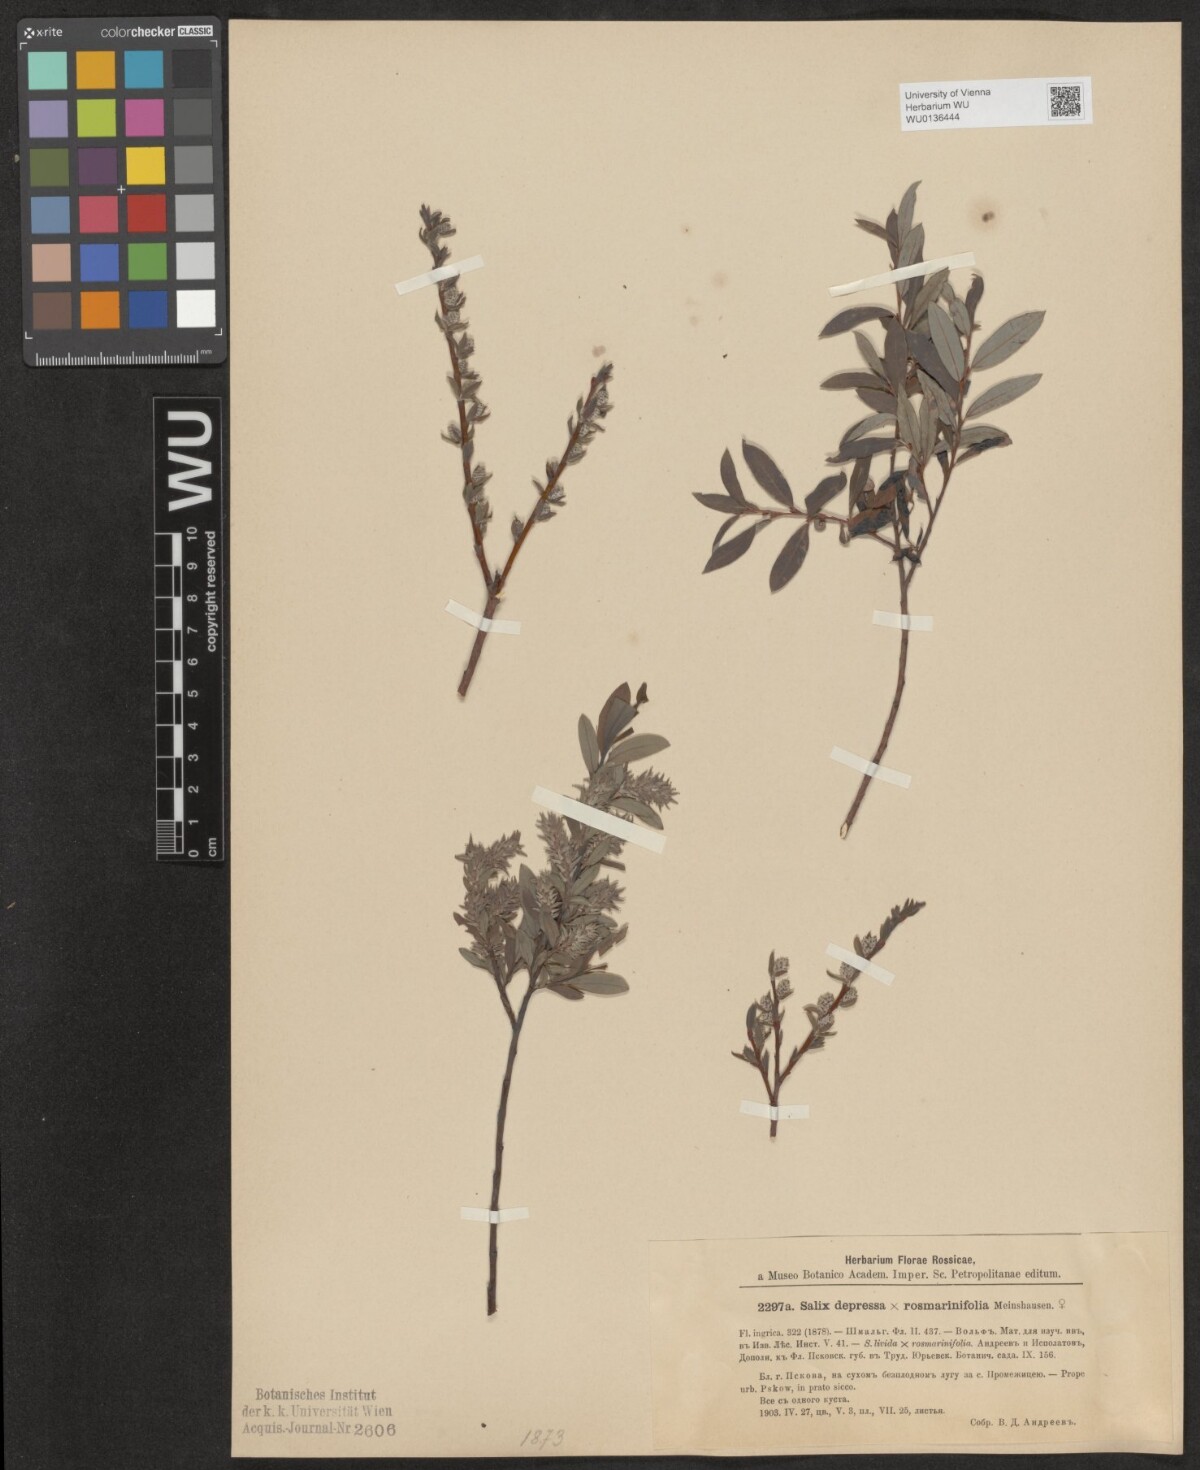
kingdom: Plantae
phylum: Tracheophyta
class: Magnoliopsida
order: Malpighiales
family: Salicaceae
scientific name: Salicaceae
